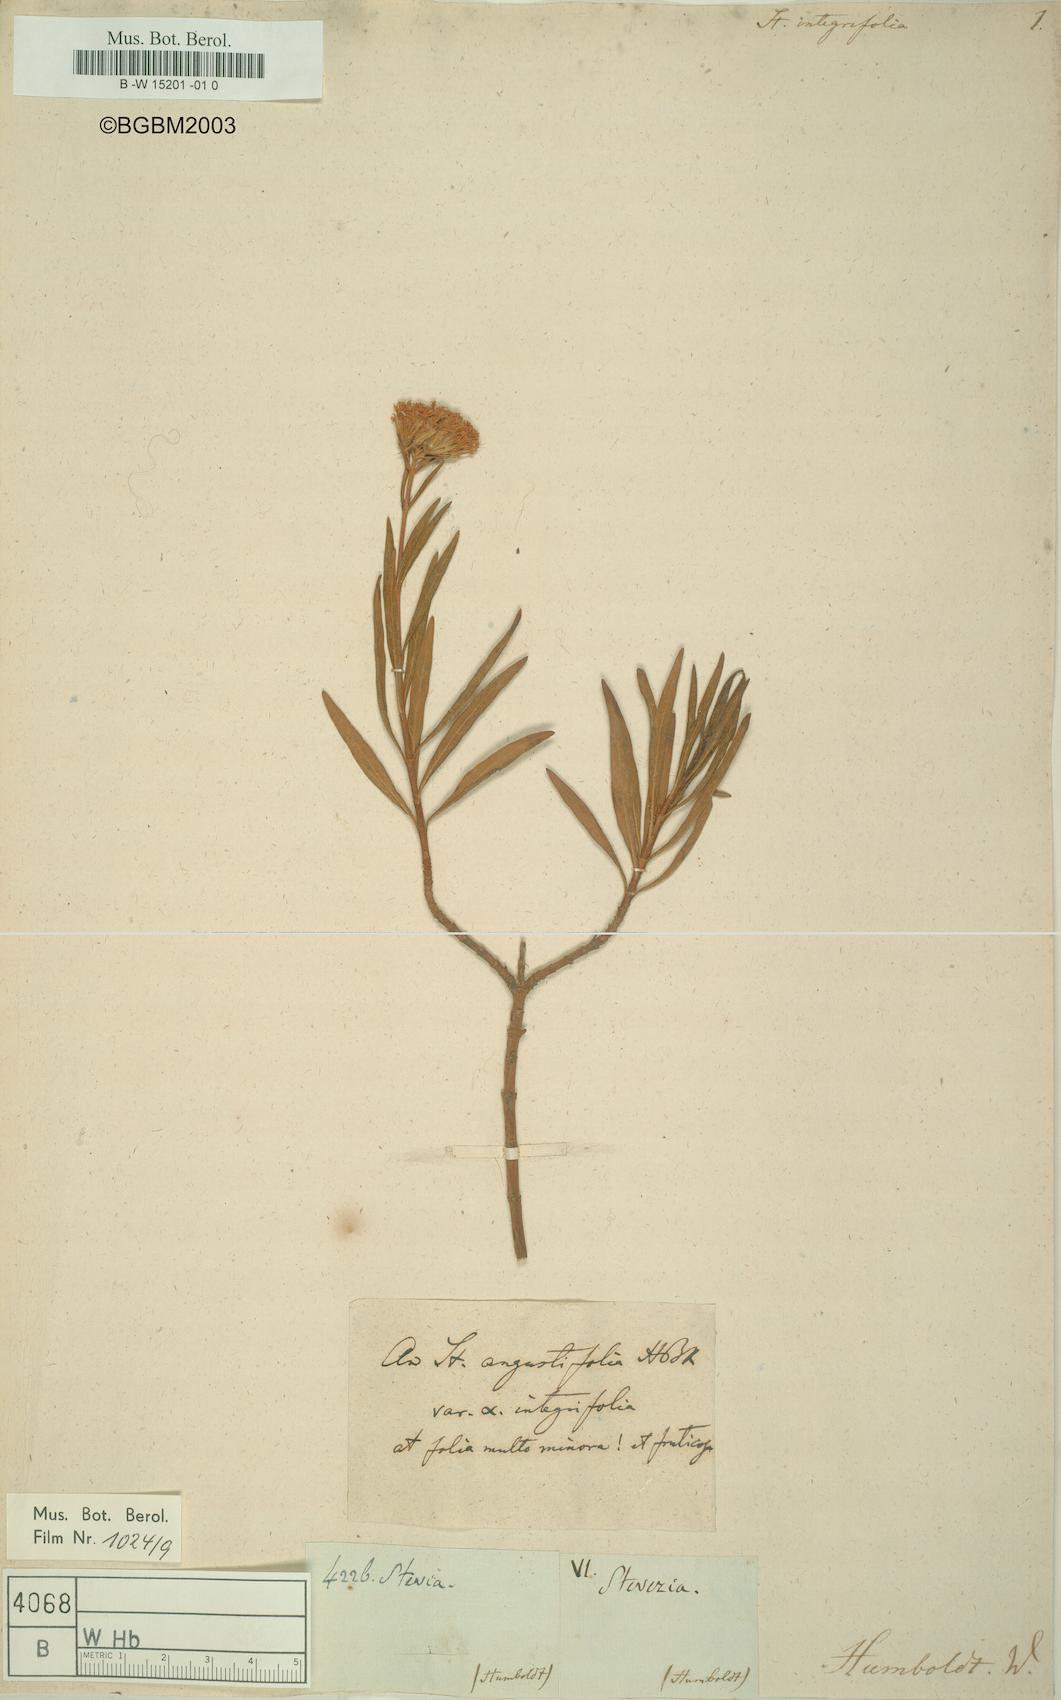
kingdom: Plantae
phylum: Tracheophyta
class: Magnoliopsida
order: Asterales
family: Asteraceae
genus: Stevia
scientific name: Stevia
